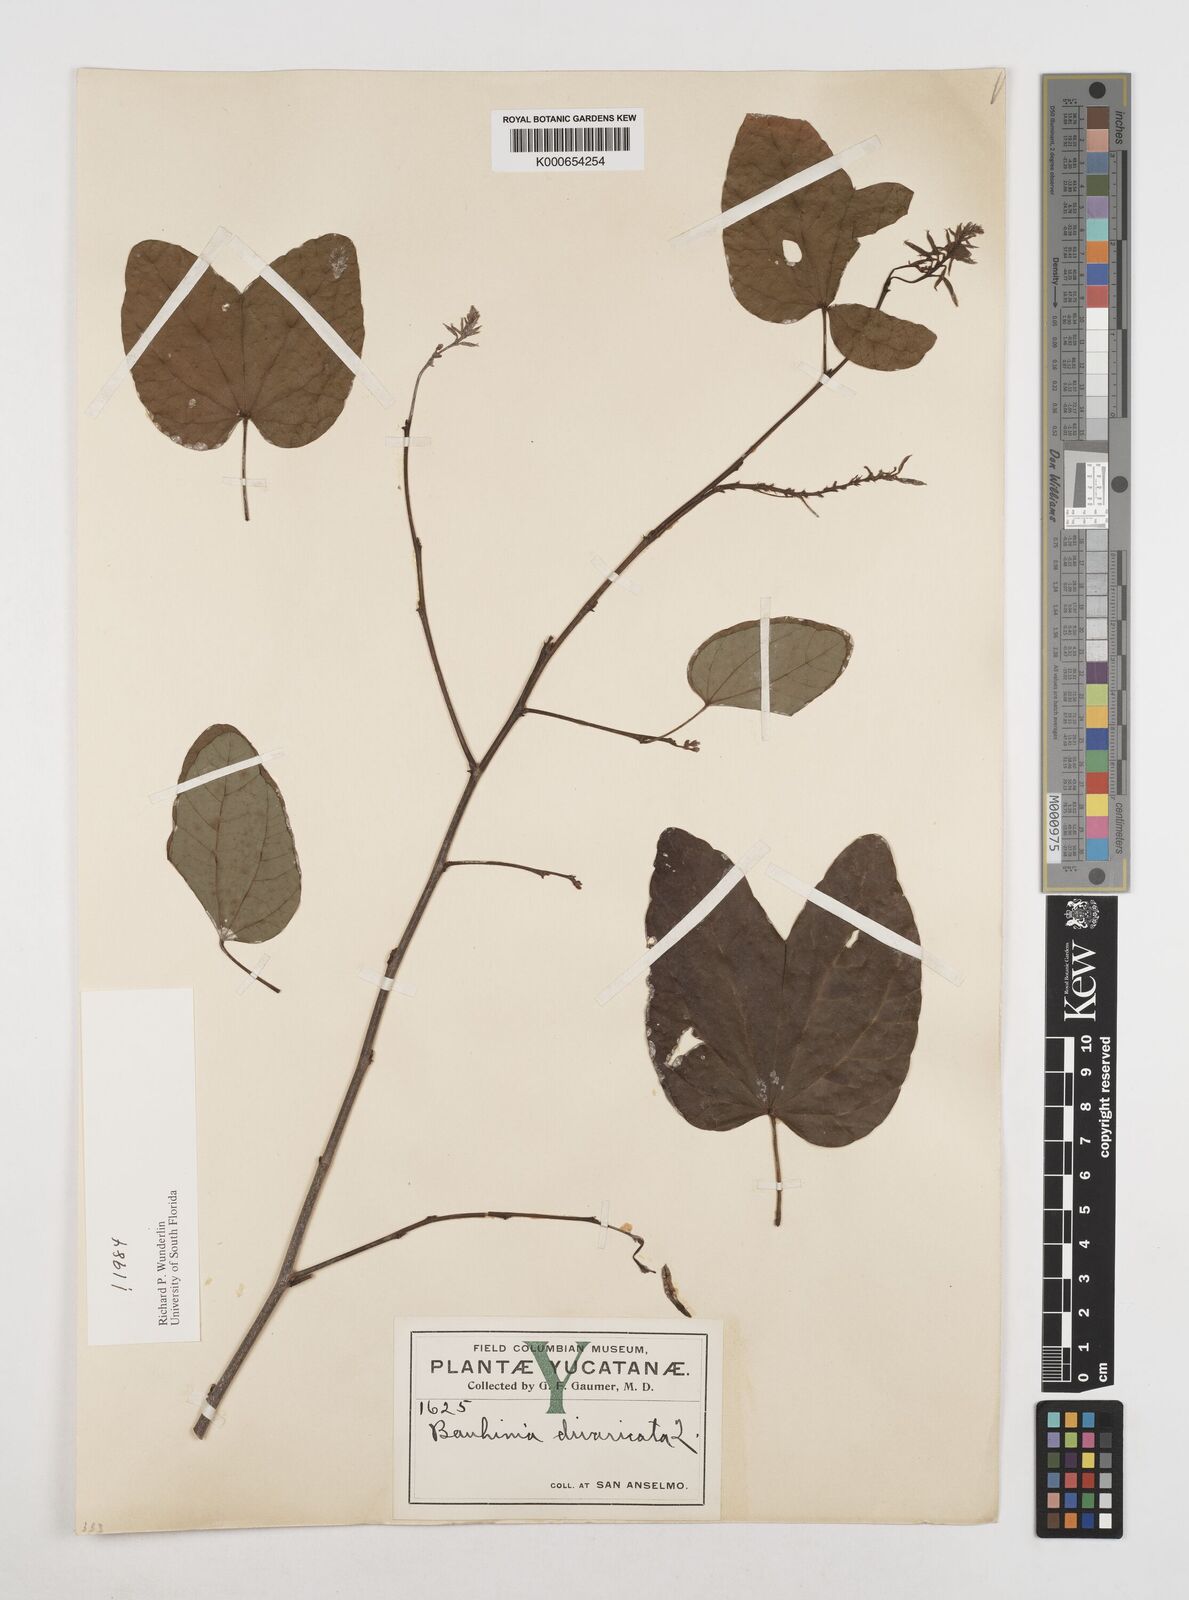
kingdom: Plantae
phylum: Tracheophyta
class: Magnoliopsida
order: Fabales
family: Fabaceae
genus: Bauhinia
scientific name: Bauhinia divaricata
